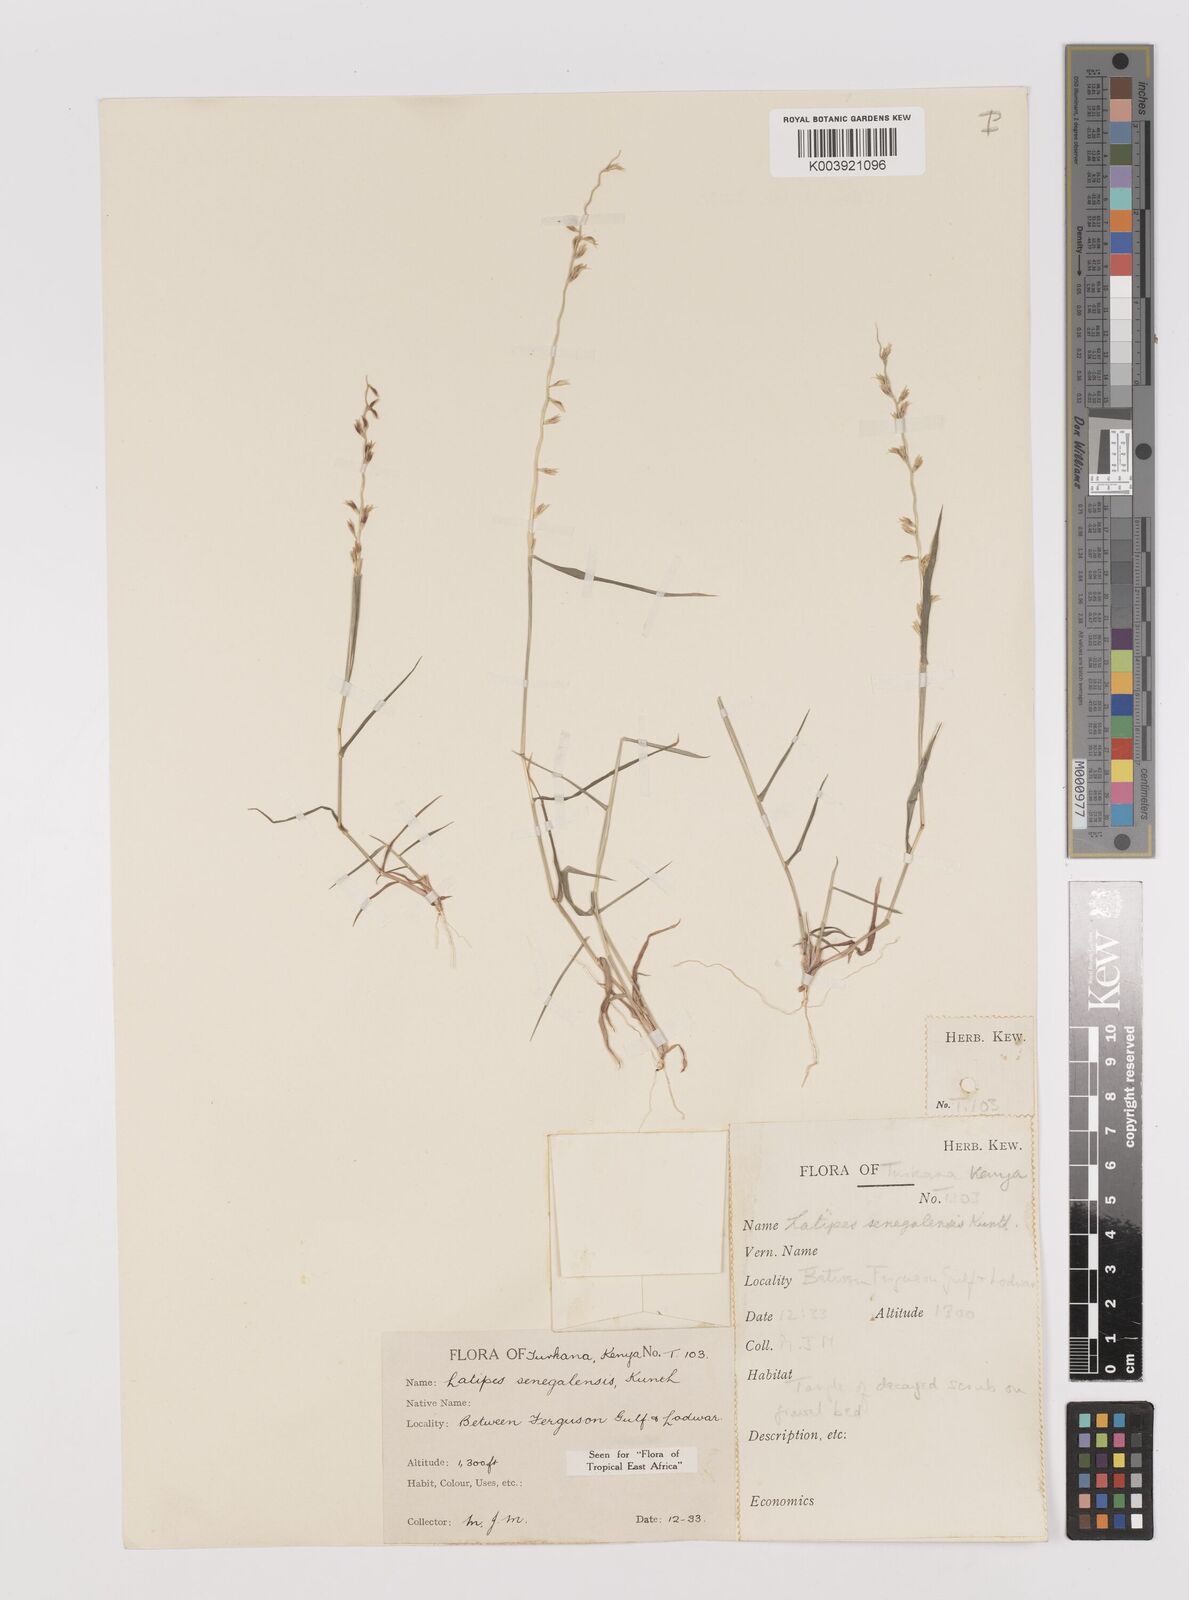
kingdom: Plantae
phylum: Tracheophyta
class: Liliopsida
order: Poales
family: Poaceae
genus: Leptothrium
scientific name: Leptothrium senegalense
